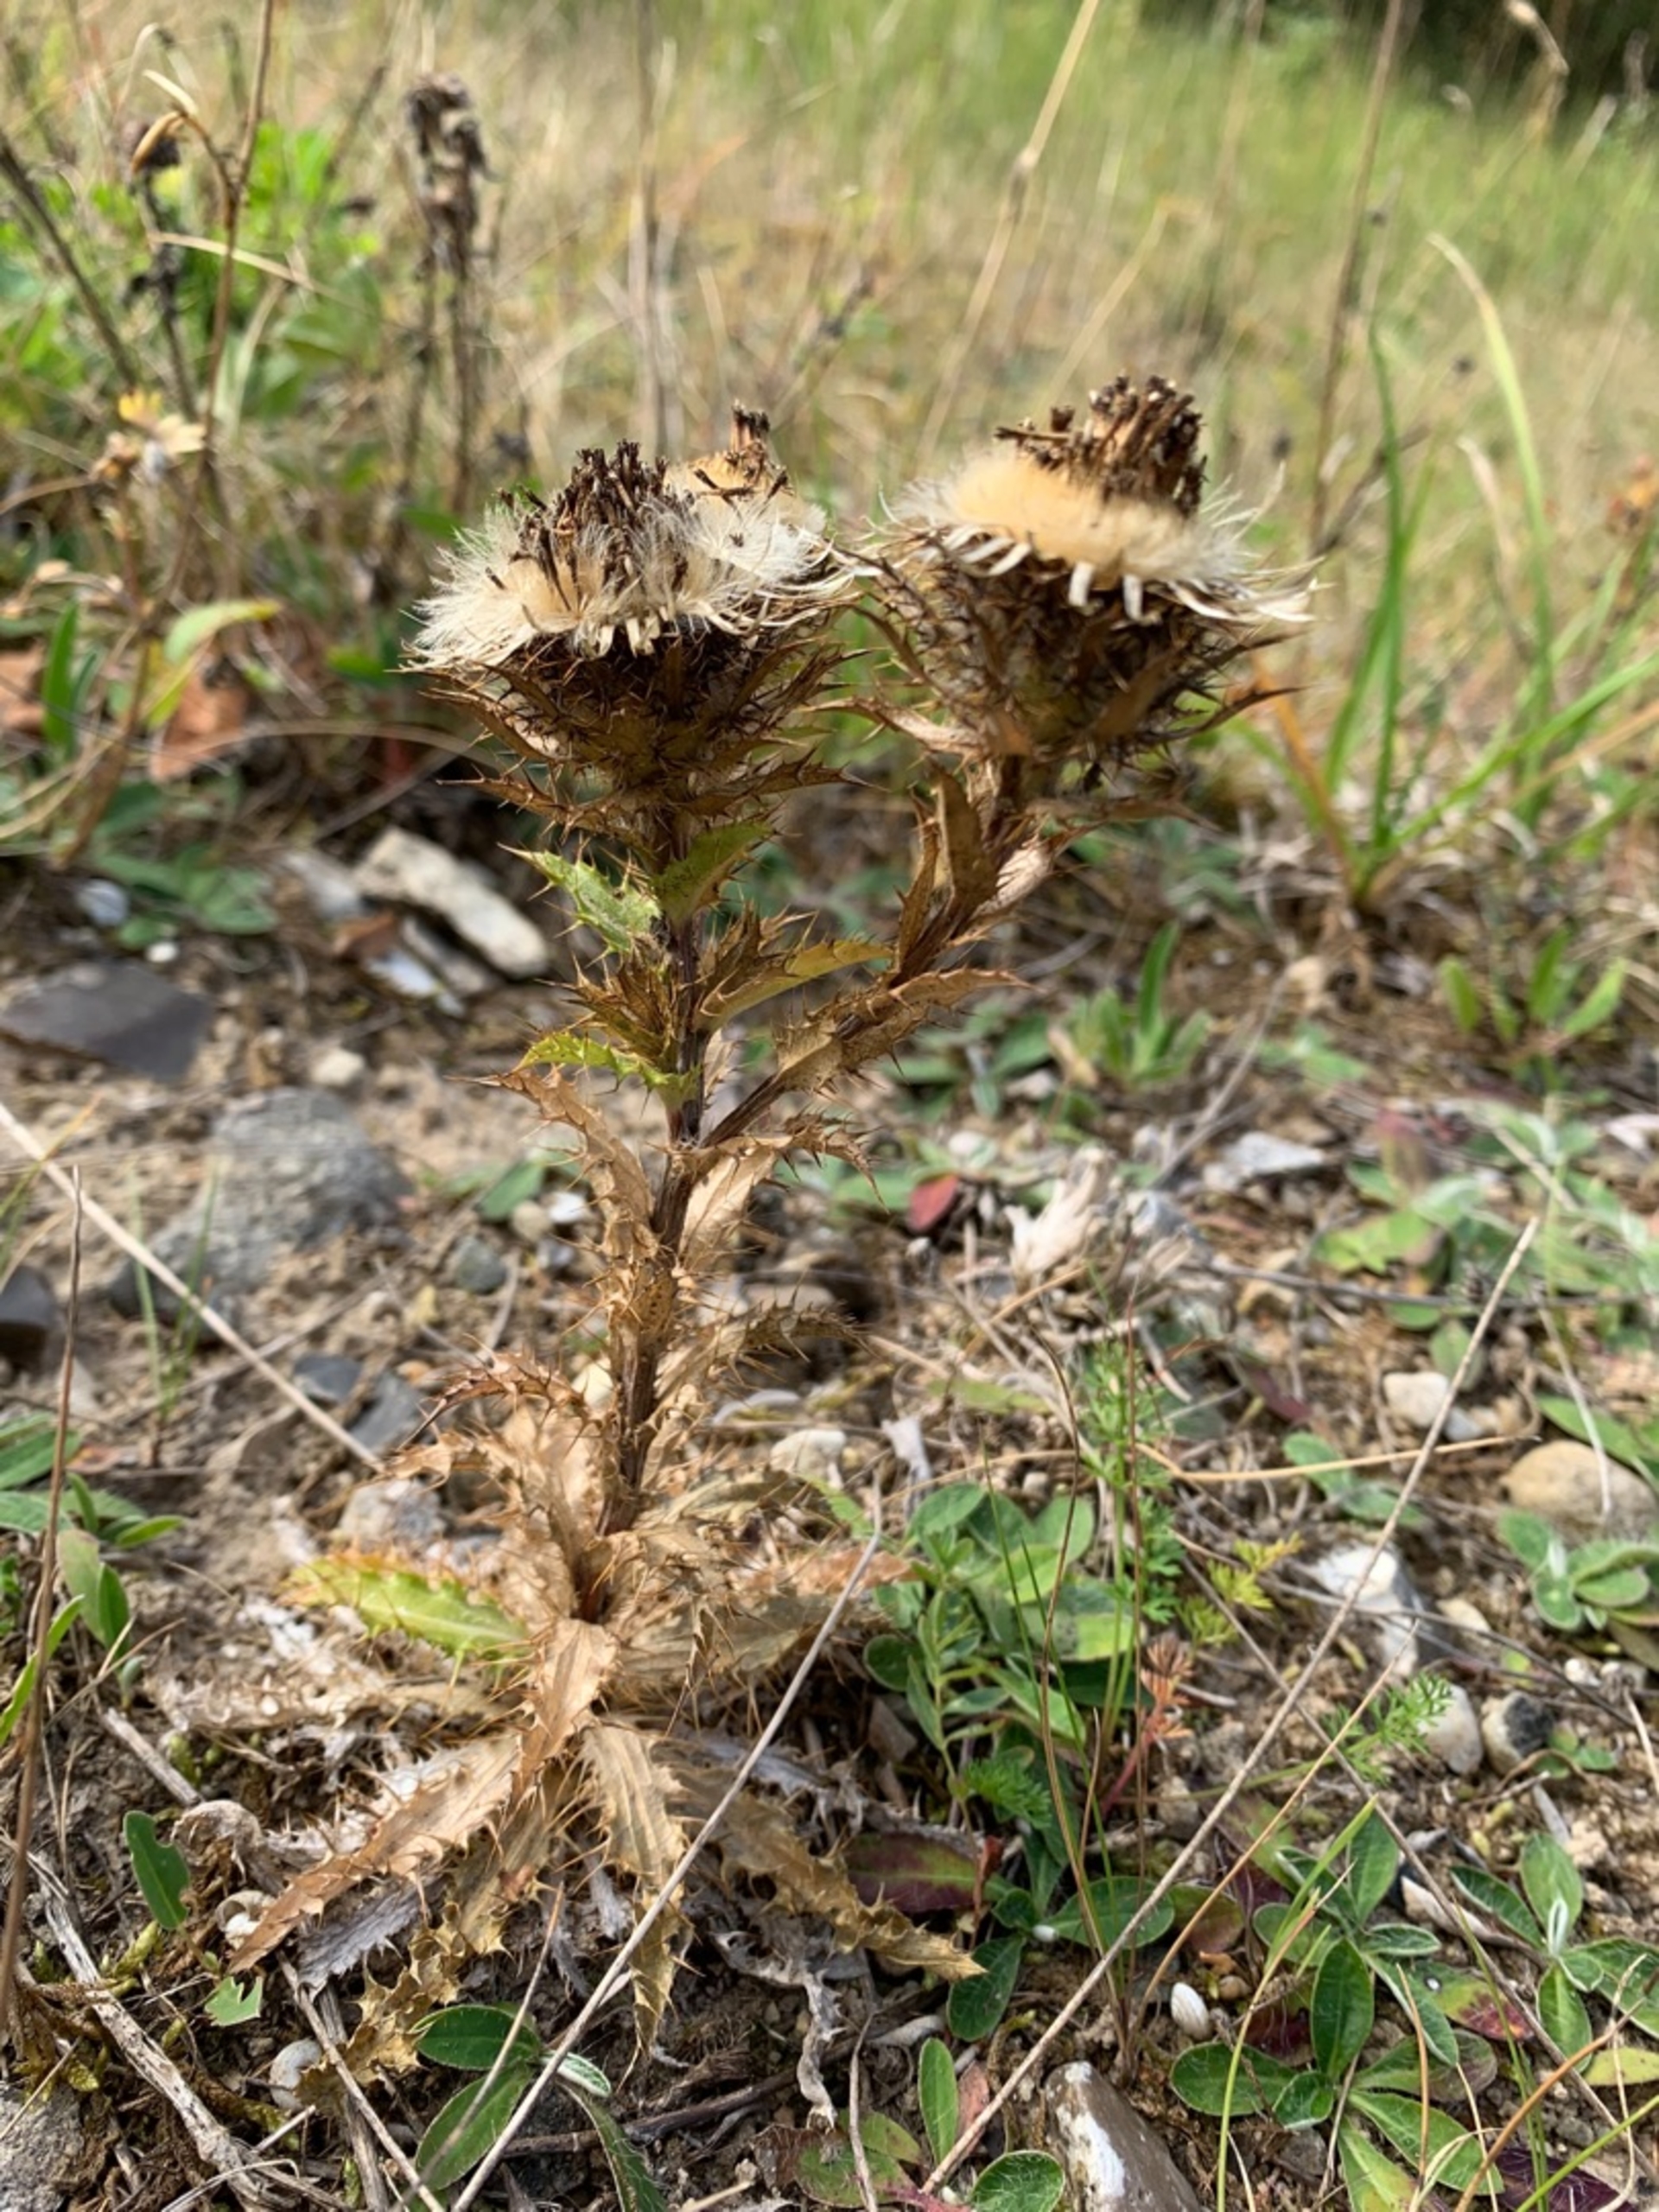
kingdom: Plantae
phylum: Tracheophyta
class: Magnoliopsida
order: Asterales
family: Asteraceae
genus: Carlina
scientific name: Carlina vulgaris
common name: Bakketidsel
